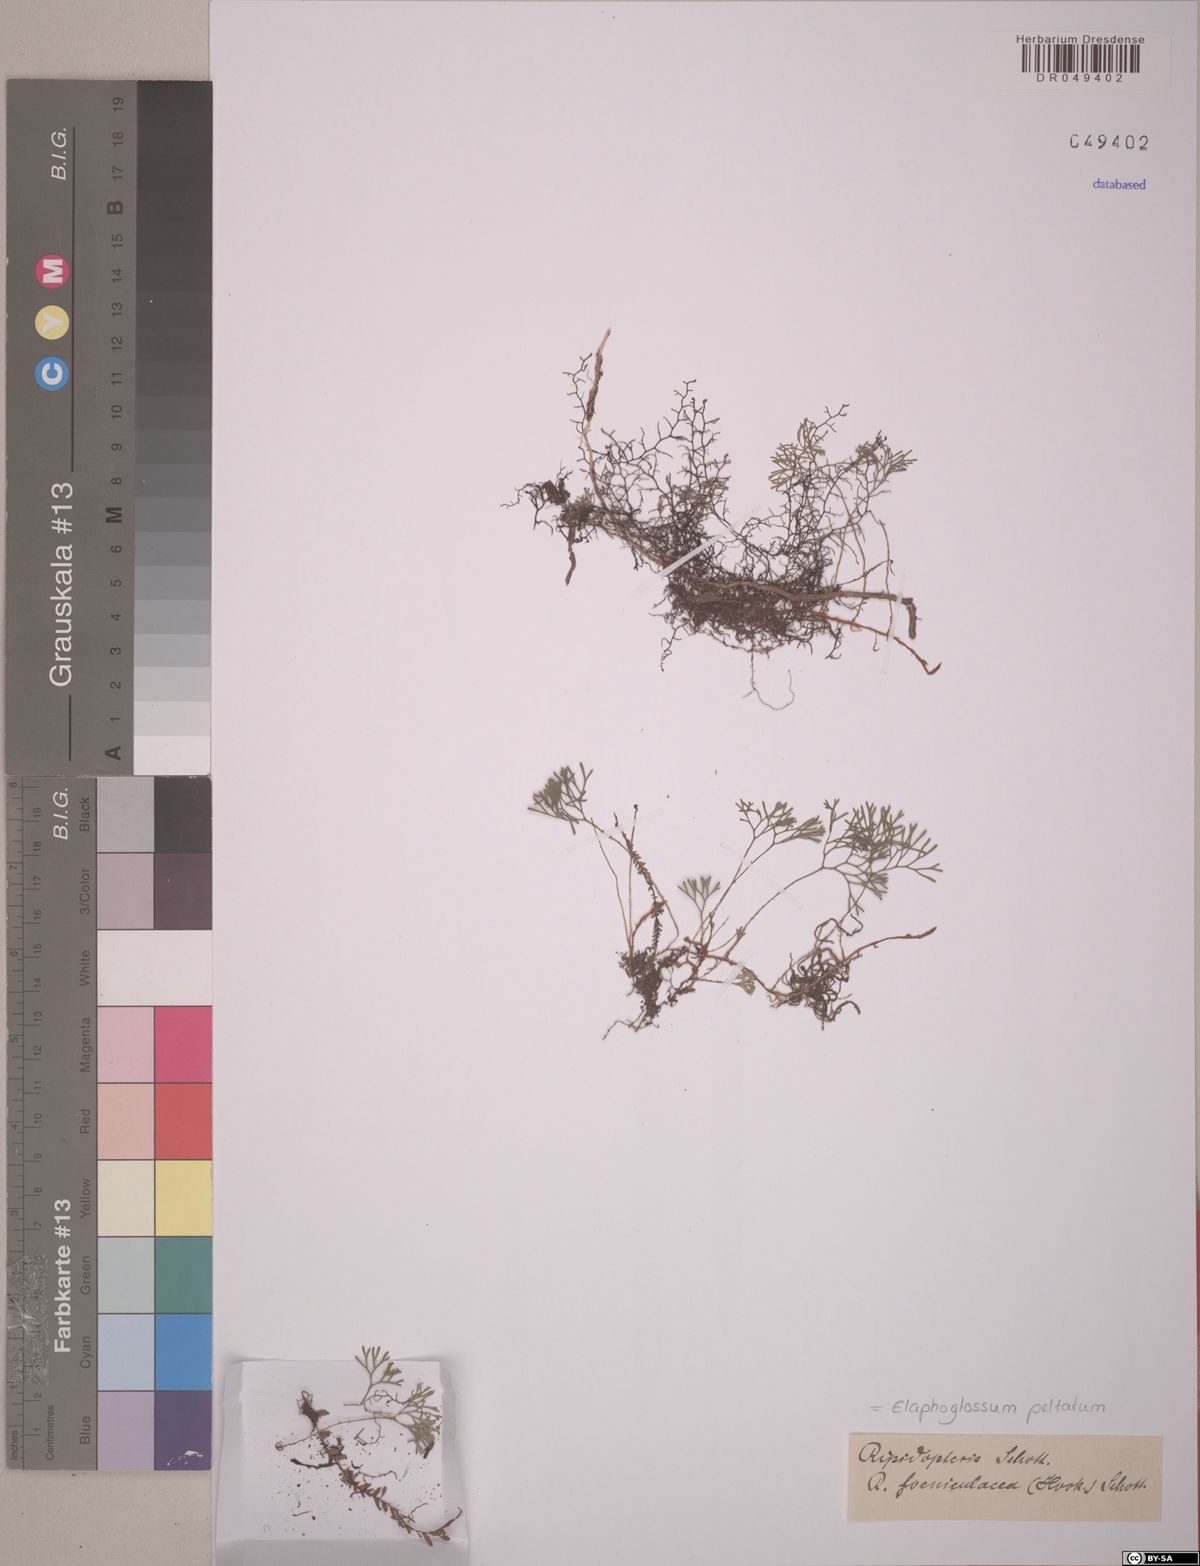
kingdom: Plantae
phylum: Tracheophyta
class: Polypodiopsida
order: Polypodiales
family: Dryopteridaceae
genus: Elaphoglossum
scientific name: Elaphoglossum peltatum
